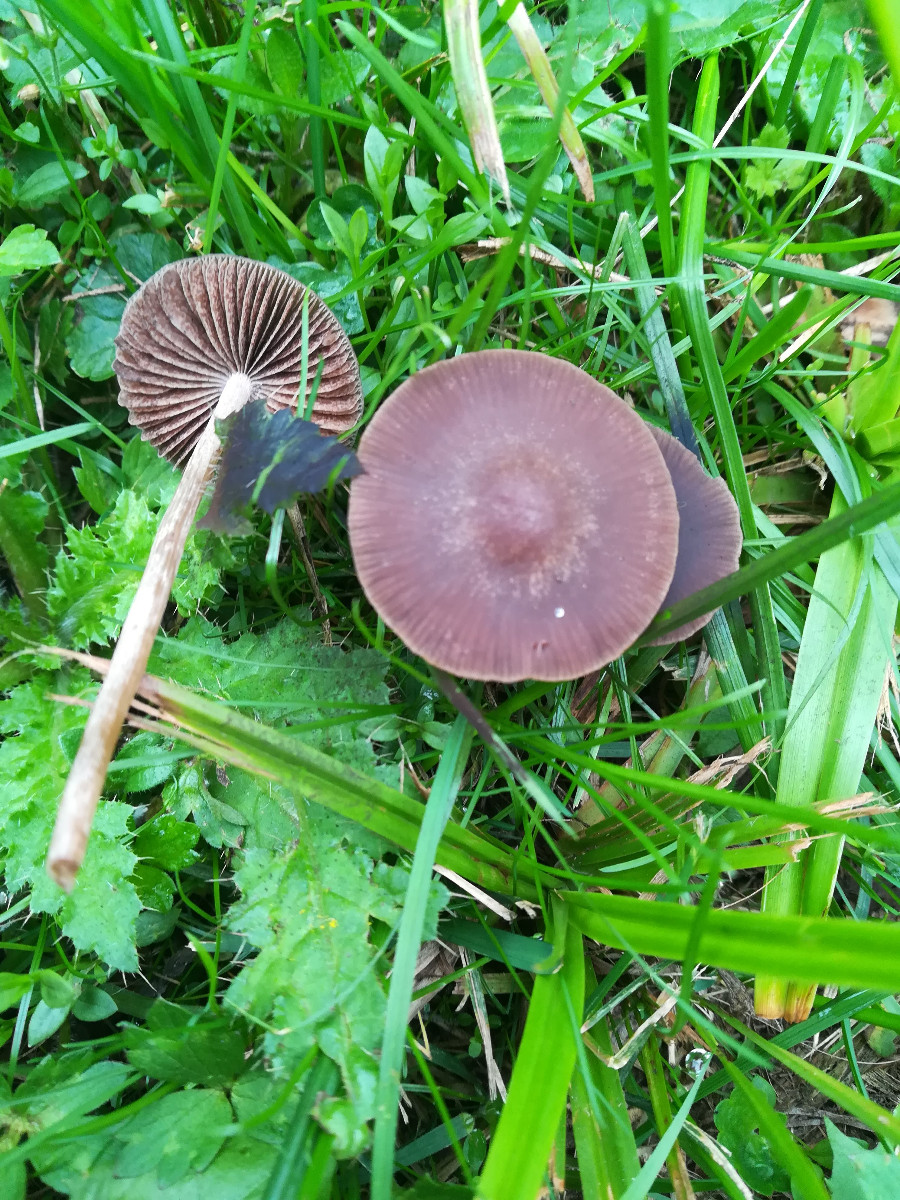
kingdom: Fungi
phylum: Basidiomycota
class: Agaricomycetes
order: Agaricales
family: Bolbitiaceae
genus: Panaeolina
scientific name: Panaeolina foenisecii
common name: høslætsvamp
